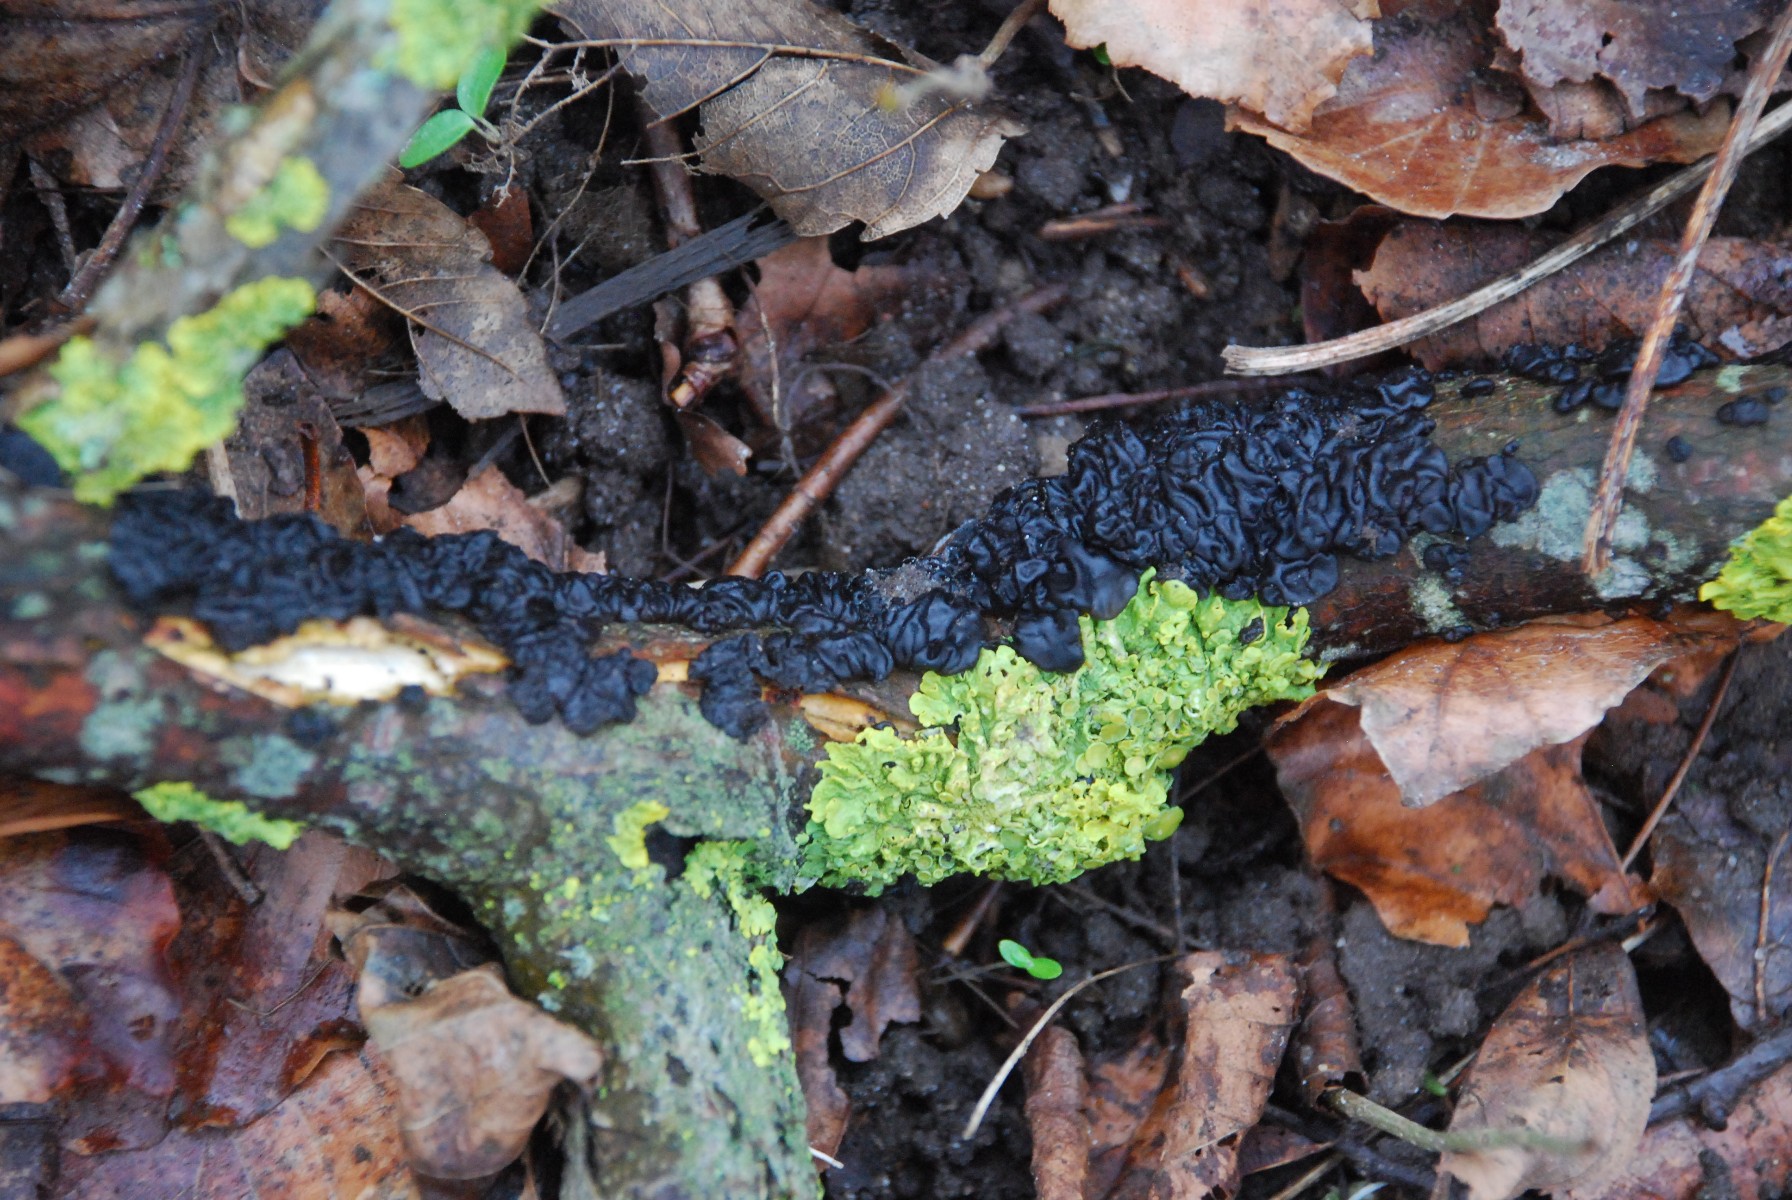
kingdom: Fungi
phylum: Basidiomycota
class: Agaricomycetes
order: Auriculariales
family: Auriculariaceae
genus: Exidia
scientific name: Exidia nigricans
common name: almindelig bævretop
